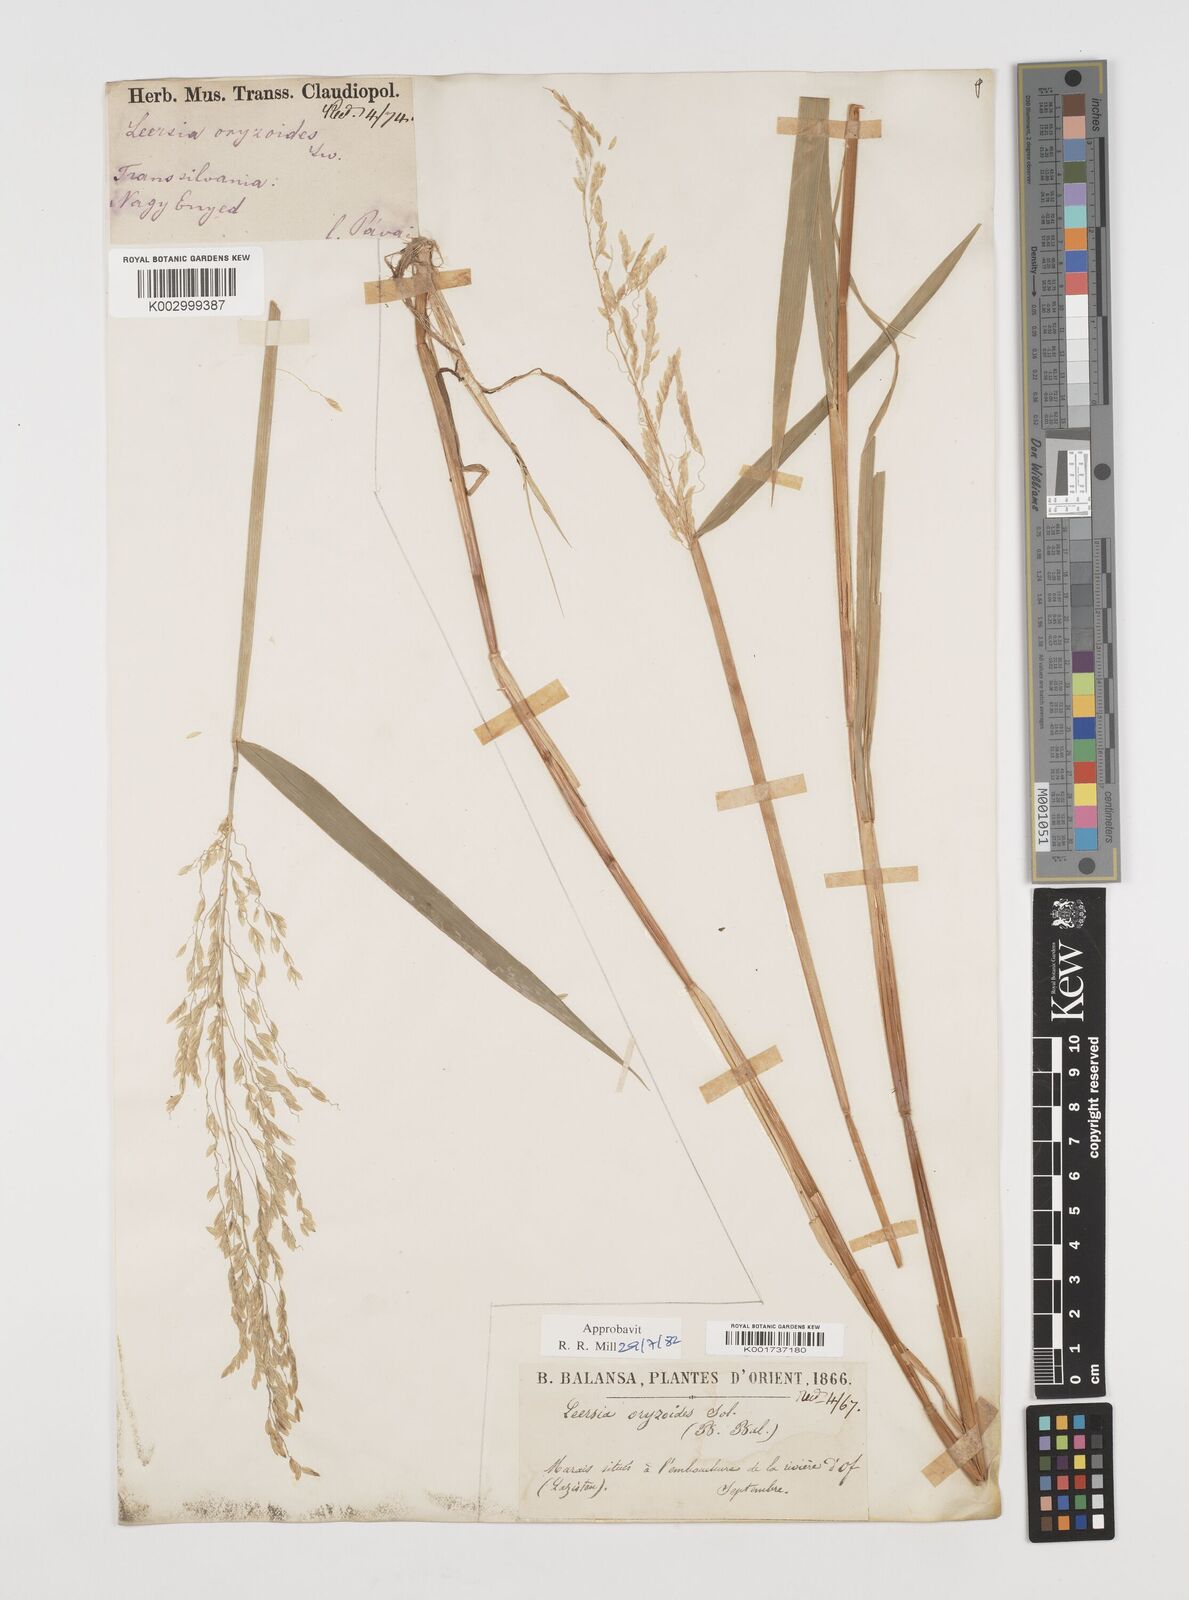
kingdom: Plantae
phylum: Tracheophyta
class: Liliopsida
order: Poales
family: Poaceae
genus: Leersia
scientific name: Leersia oryzoides
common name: Cut-grass
